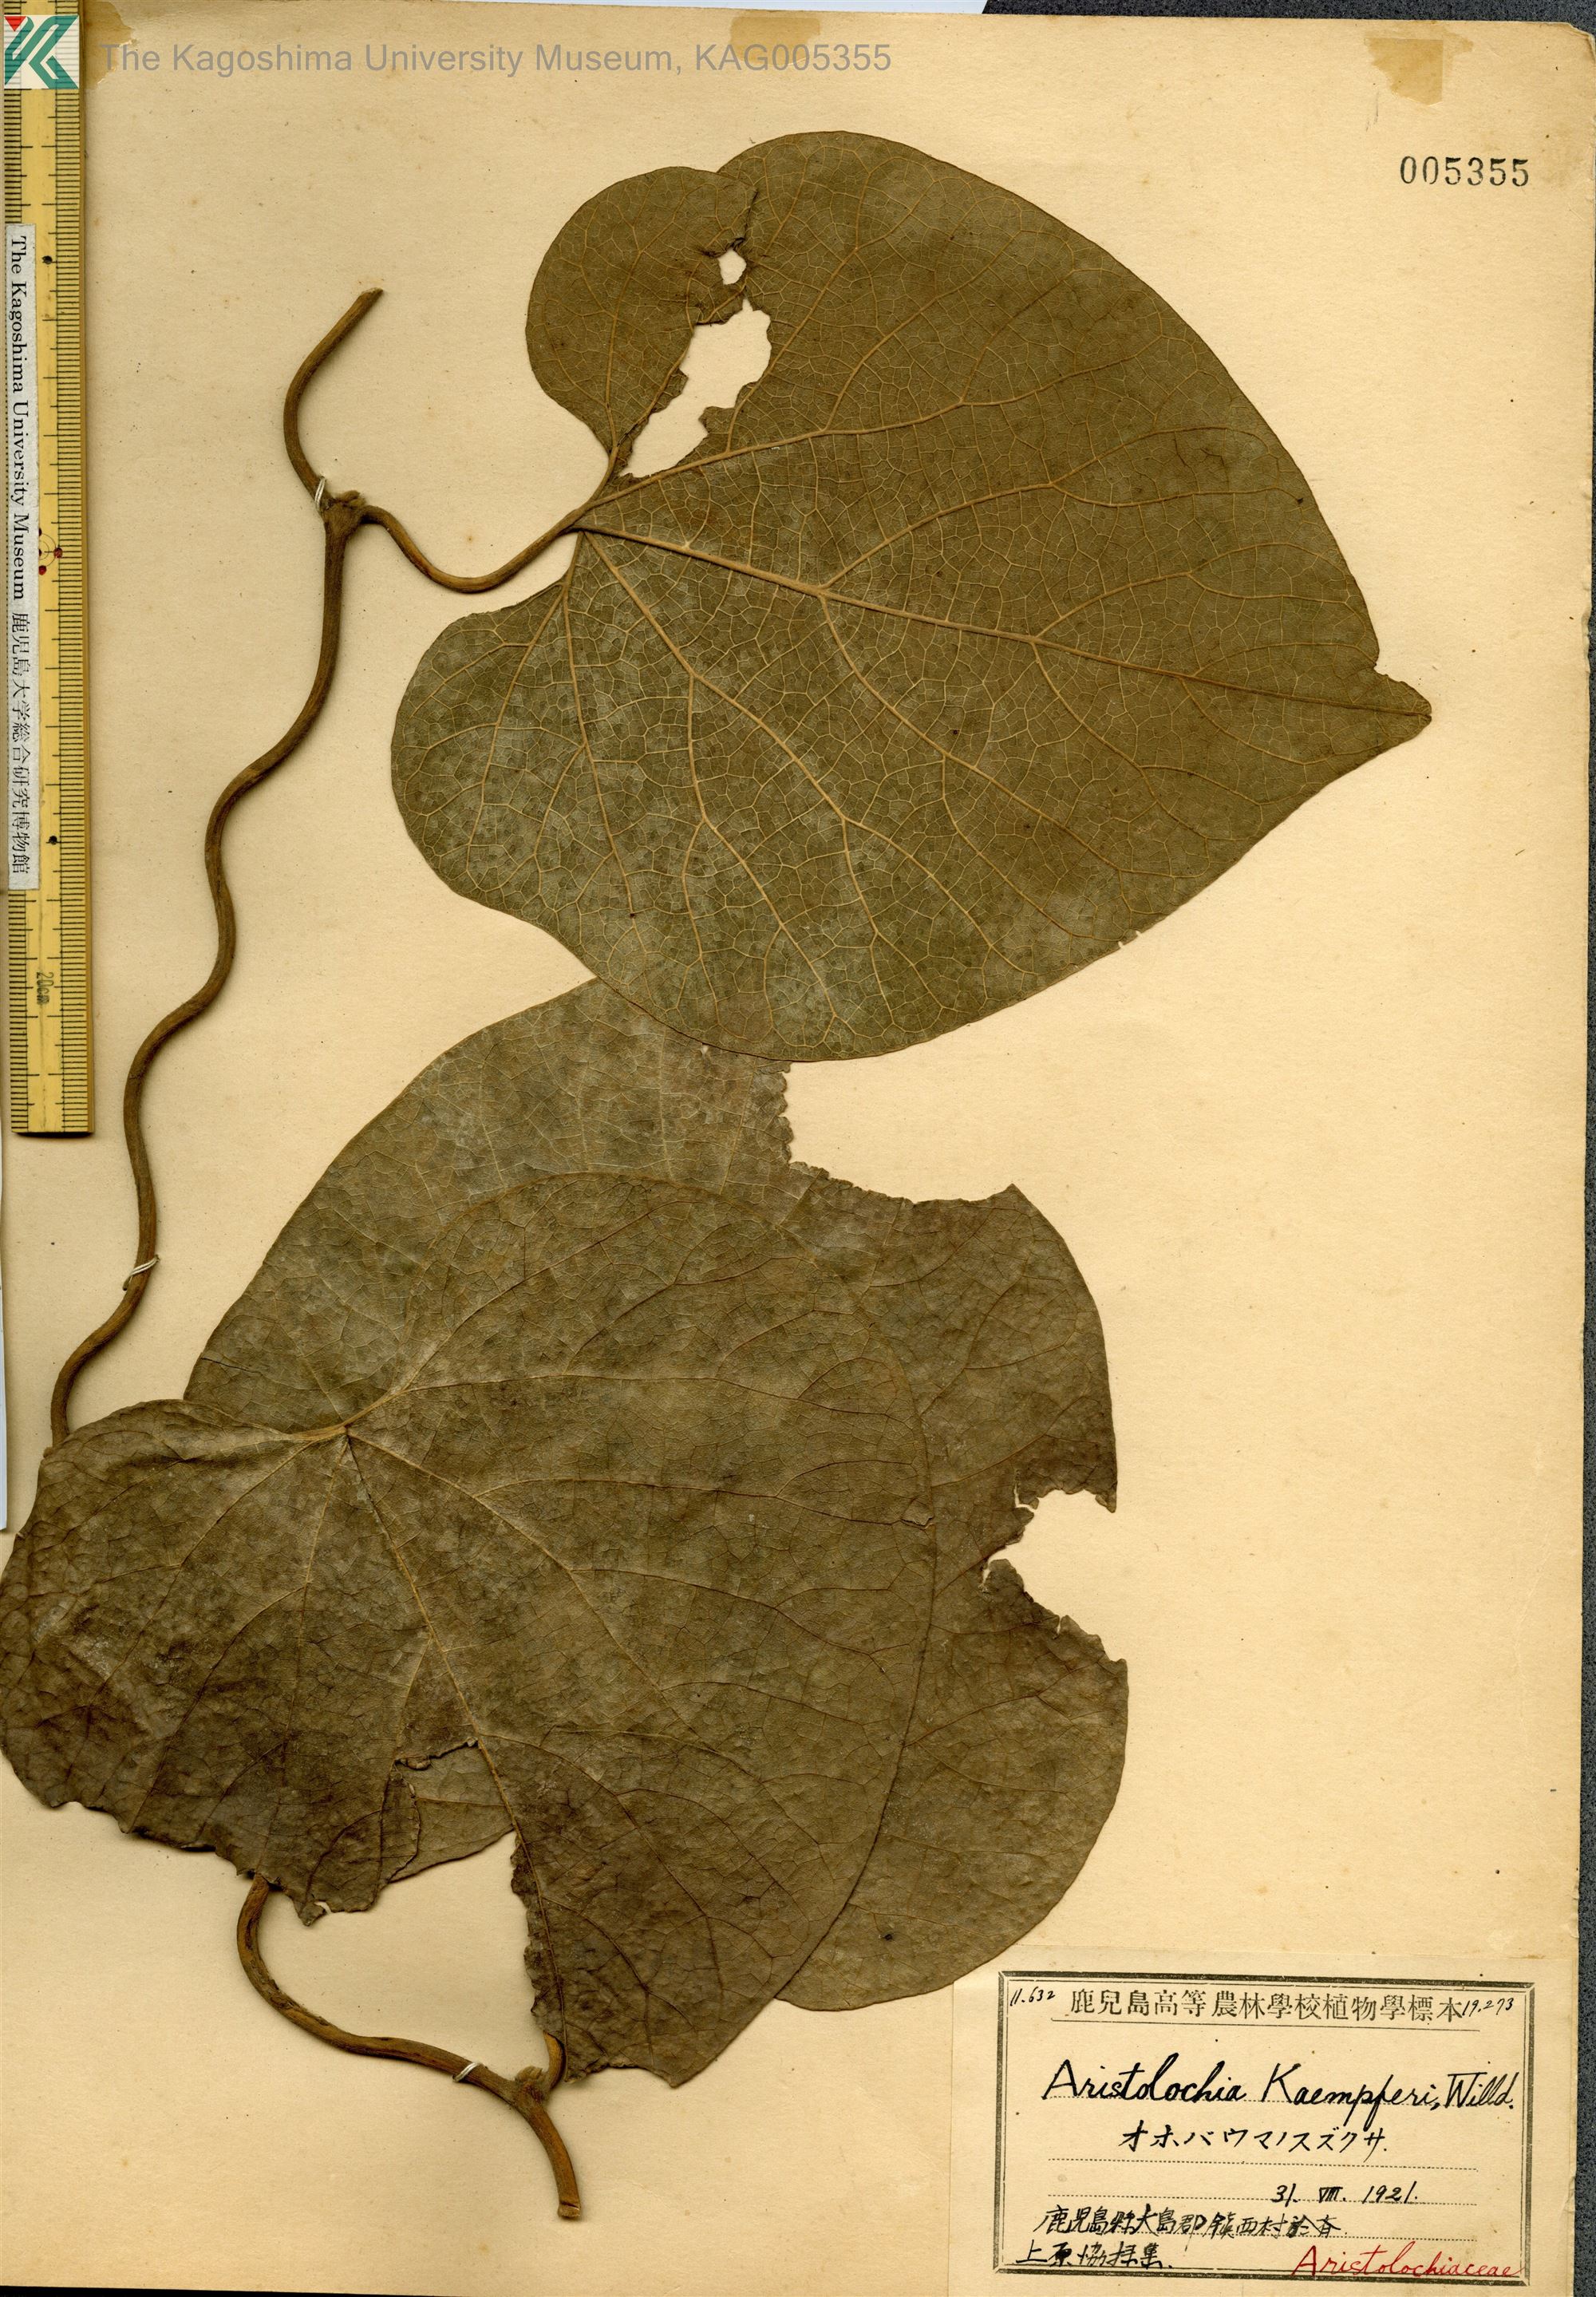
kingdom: Plantae
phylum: Tracheophyta
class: Magnoliopsida
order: Piperales
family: Aristolochiaceae
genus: Isotrema
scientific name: Isotrema liukiuense
